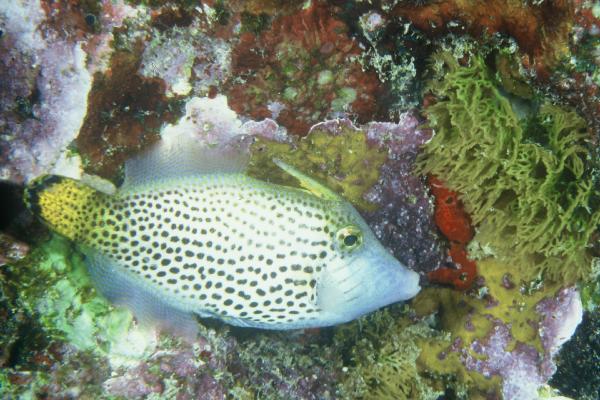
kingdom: Animalia
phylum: Chordata
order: Tetraodontiformes
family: Monacanthidae
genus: Pervagor
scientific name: Pervagor spilosoma
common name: Fantail filefish
